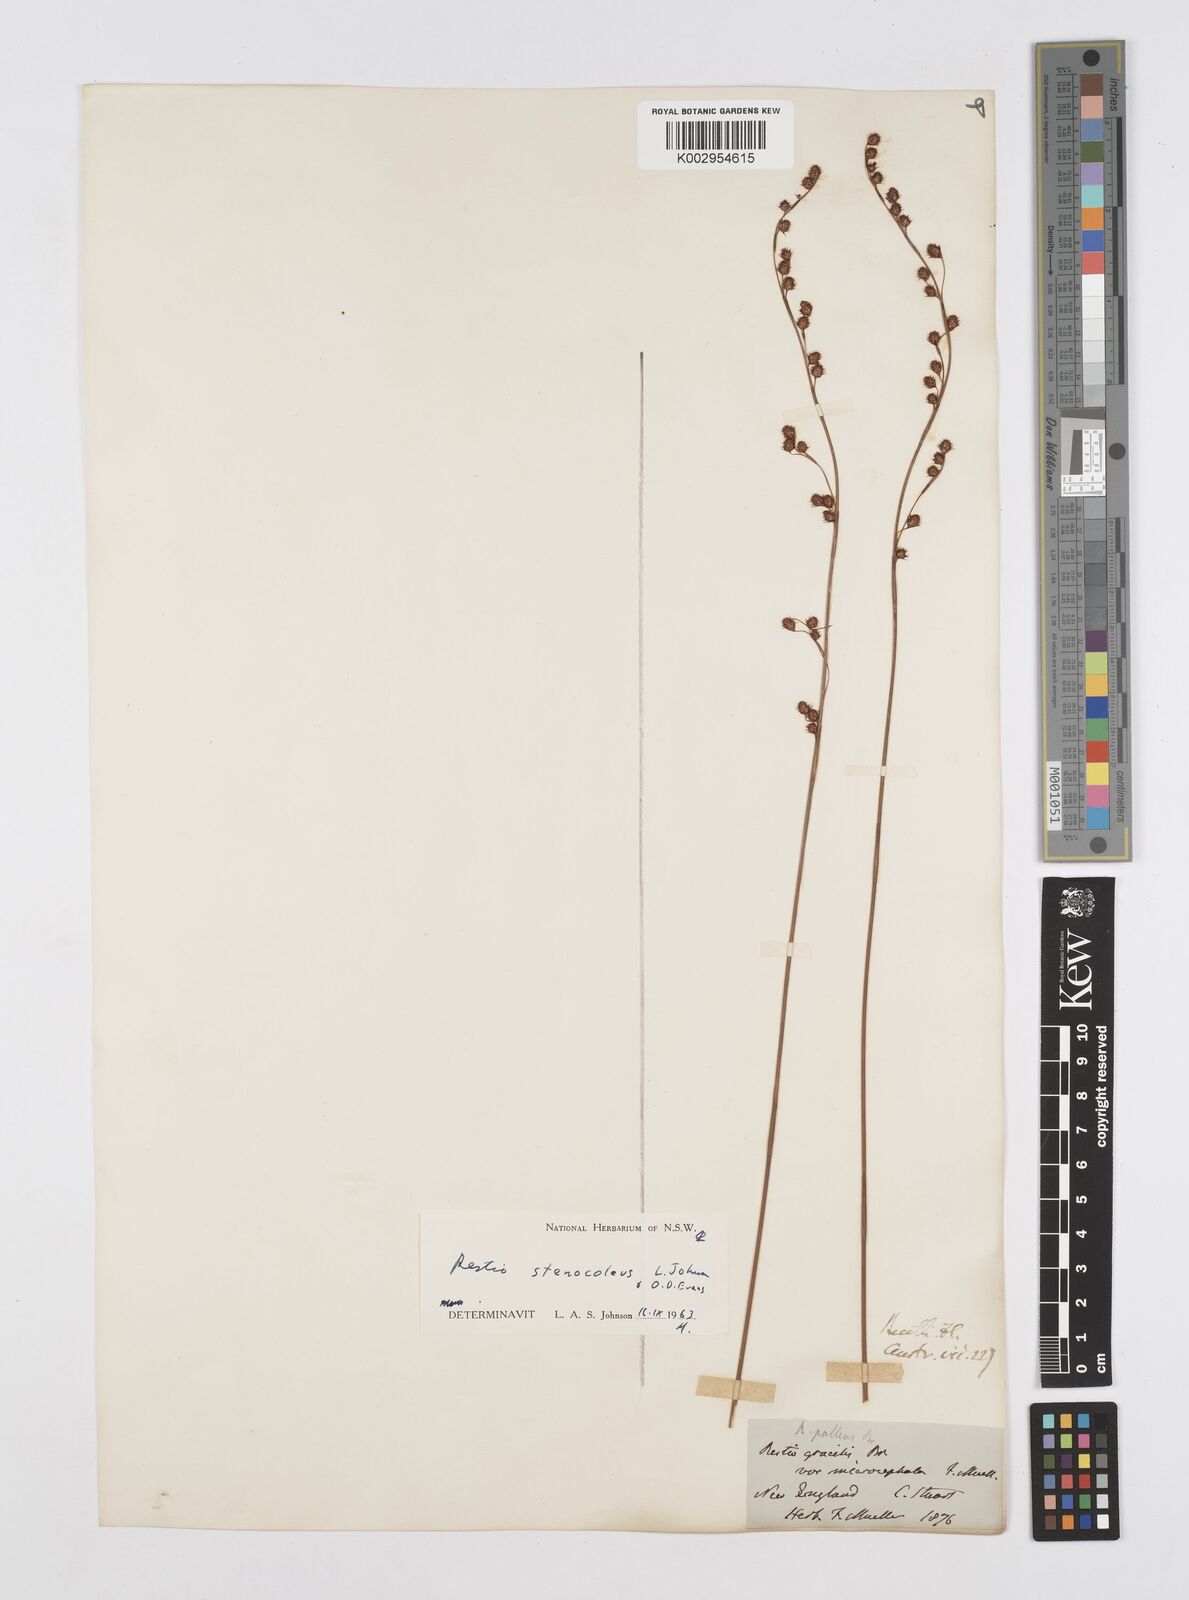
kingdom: Plantae
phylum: Tracheophyta
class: Liliopsida
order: Poales
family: Restionaceae
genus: Baloskion
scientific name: Baloskion stenocoleum
